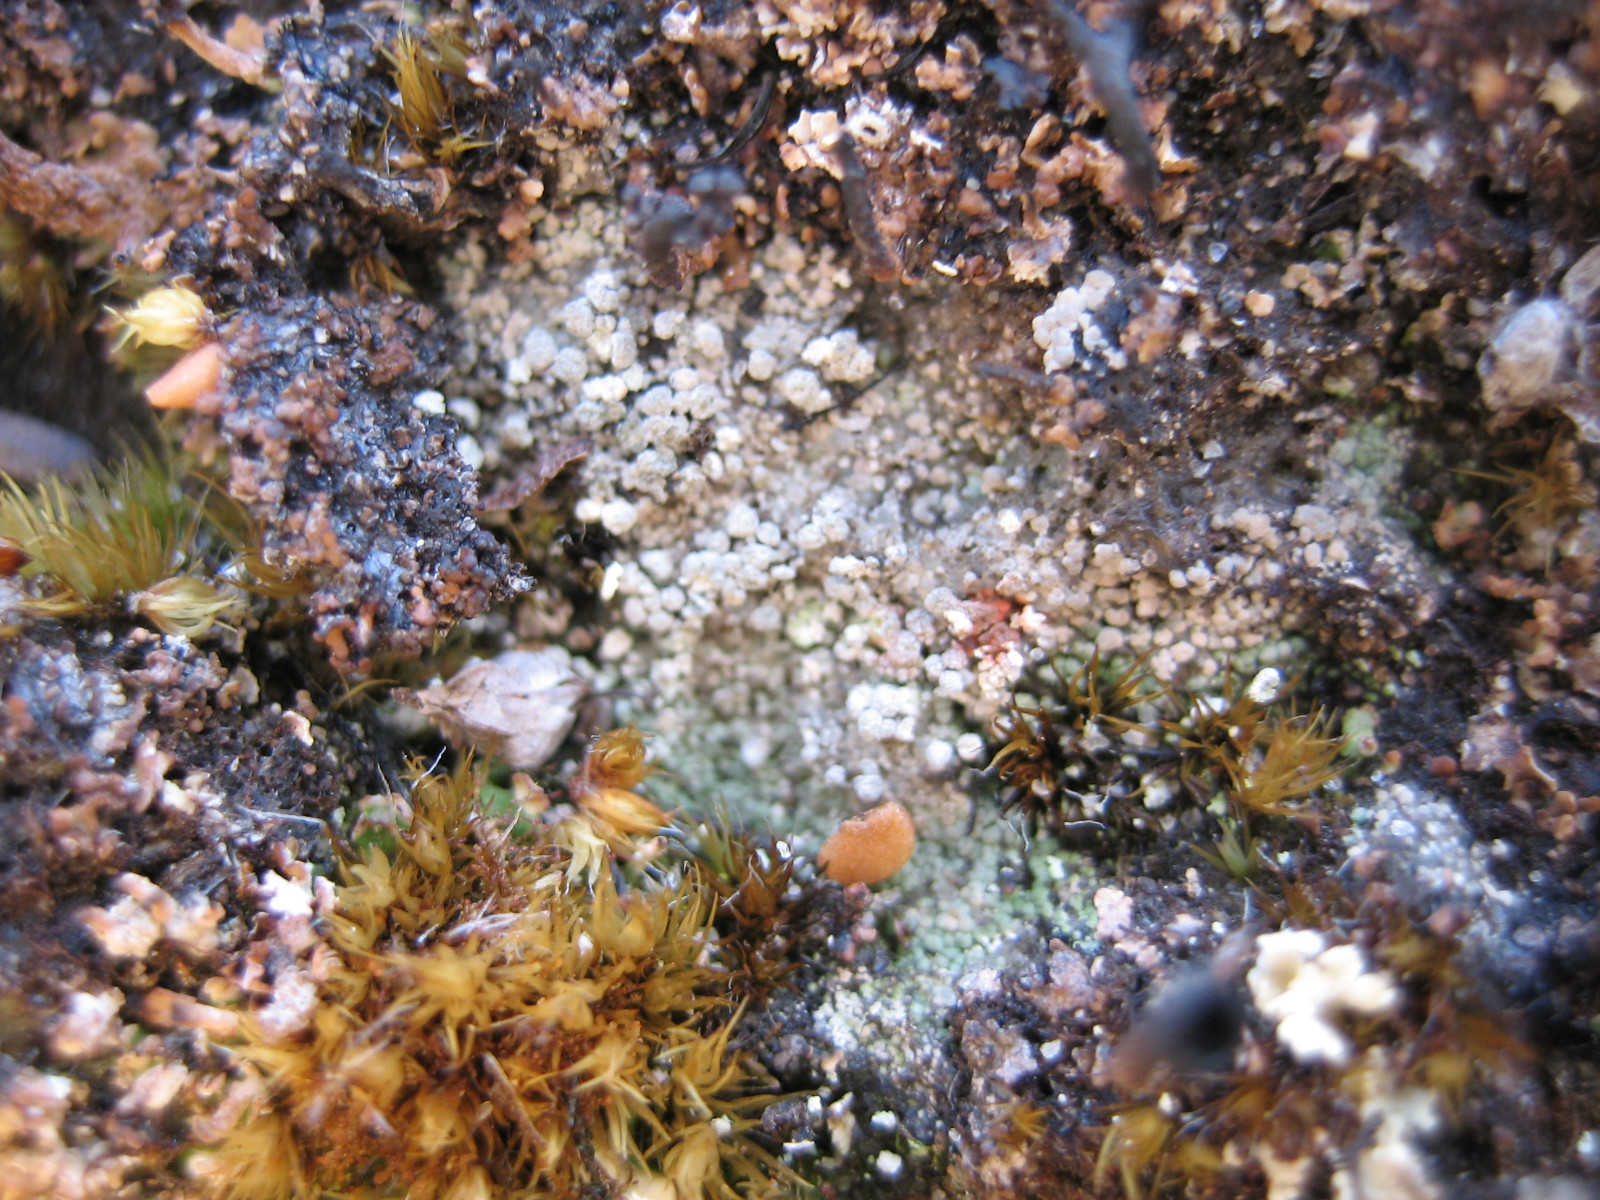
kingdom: Fungi
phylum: Ascomycota
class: Lecanoromycetes
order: Baeomycetales
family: Trapeliaceae
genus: Trapeliopsis
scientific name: Trapeliopsis granulosa
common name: forskelligfarvet skivelav
